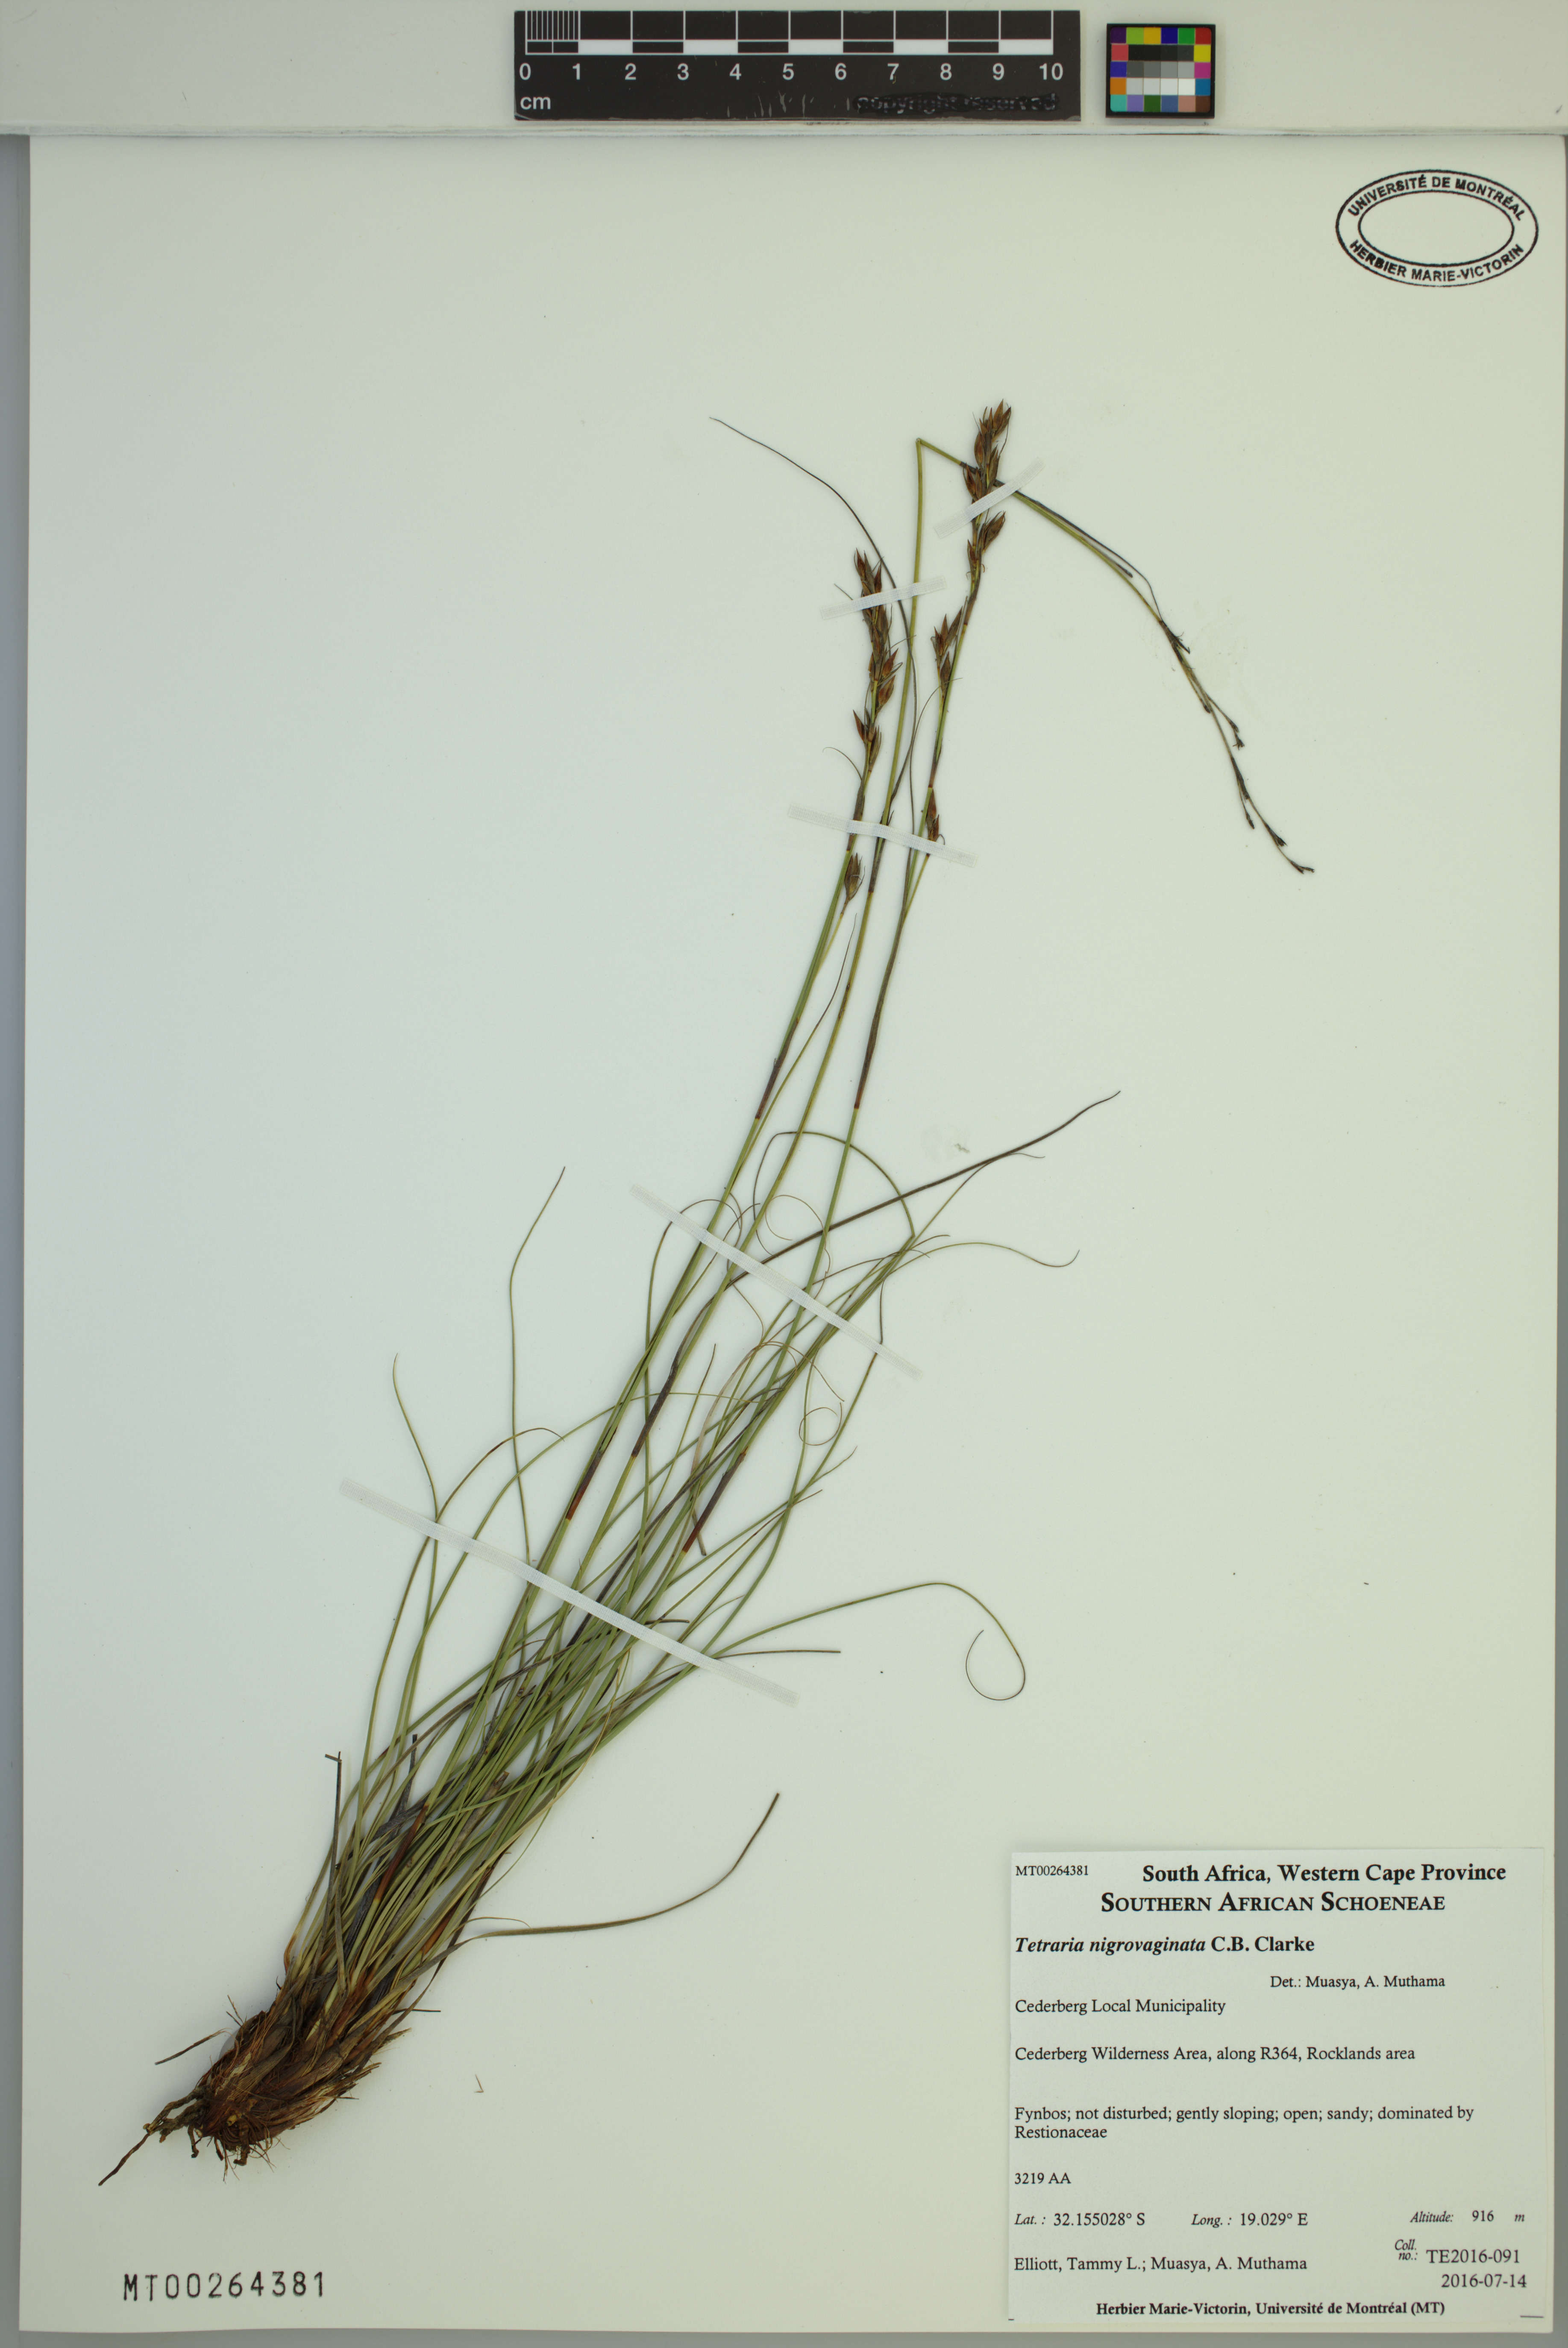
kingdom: Plantae
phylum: Tracheophyta
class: Liliopsida
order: Poales
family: Cyperaceae
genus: Tetraria
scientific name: Tetraria nigrovaginata
